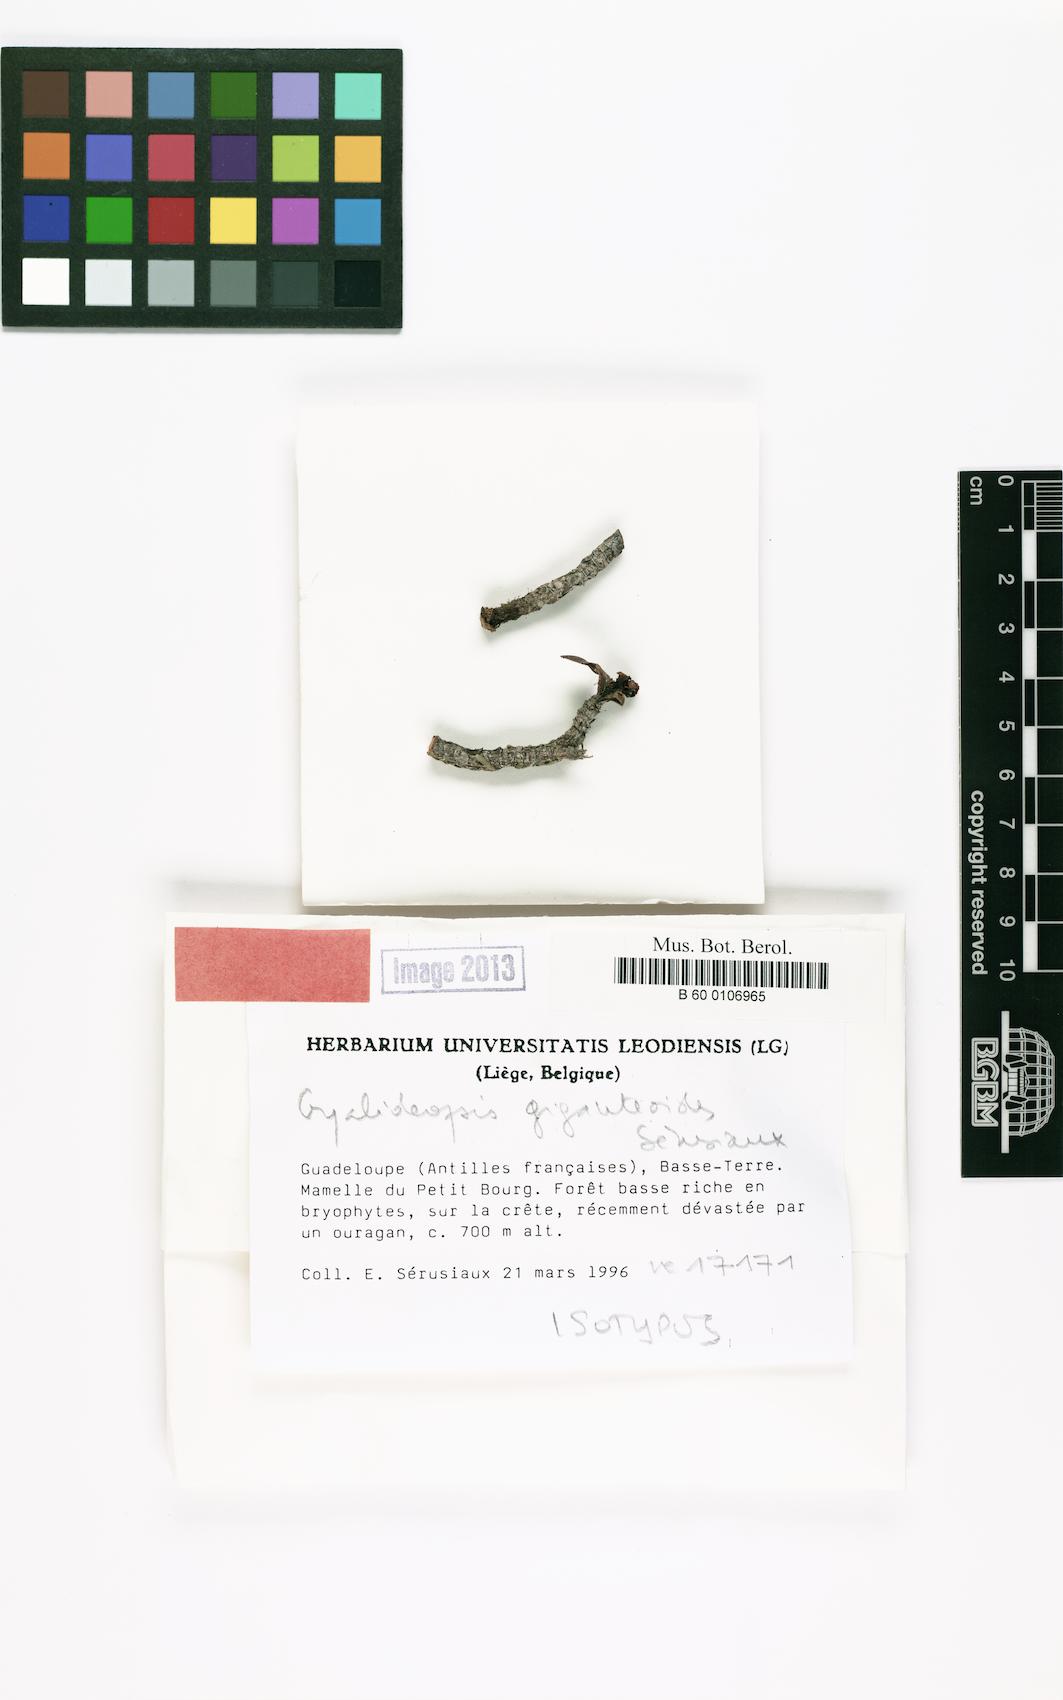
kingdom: Fungi
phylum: Ascomycota
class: Lecanoromycetes
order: Ostropales
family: Gomphillaceae
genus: Gyalideopsis
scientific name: Gyalideopsis giganteoides
